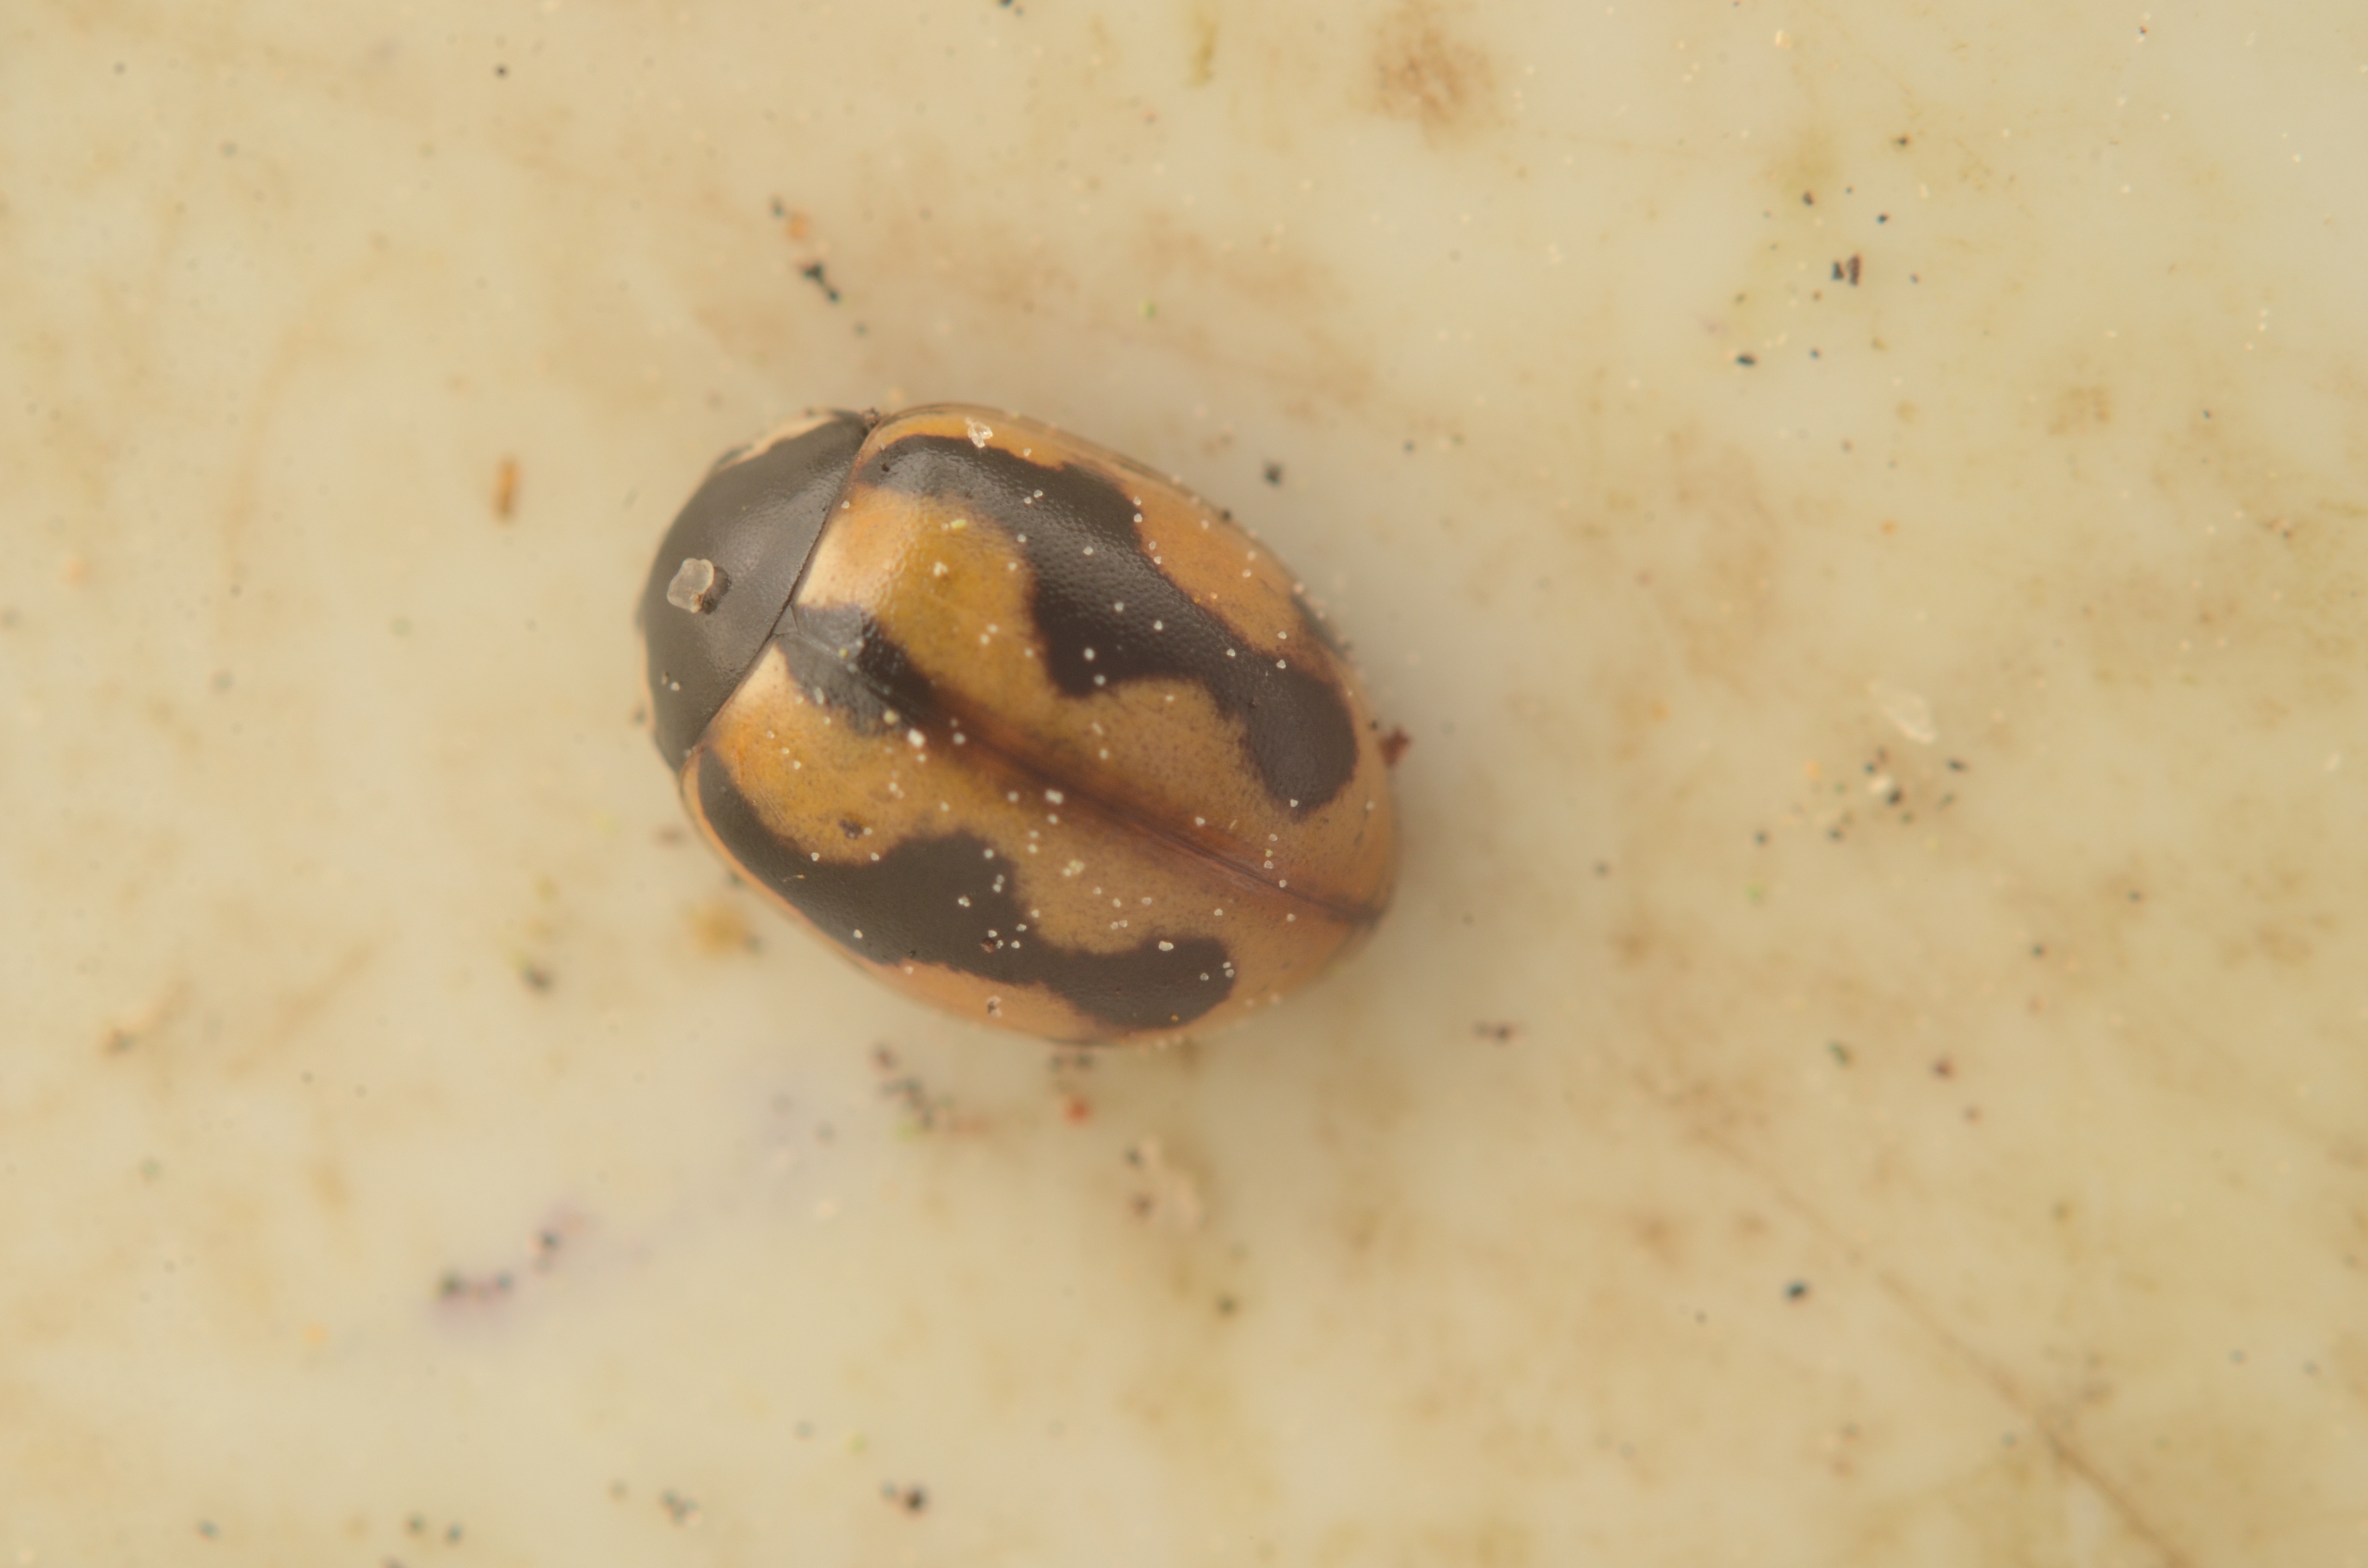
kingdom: Animalia
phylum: Arthropoda
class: Insecta
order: Coleoptera
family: Coccinellidae
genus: Coccinella
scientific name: Coccinella hieroglyphica
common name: Hieroglyf-mariehøne
